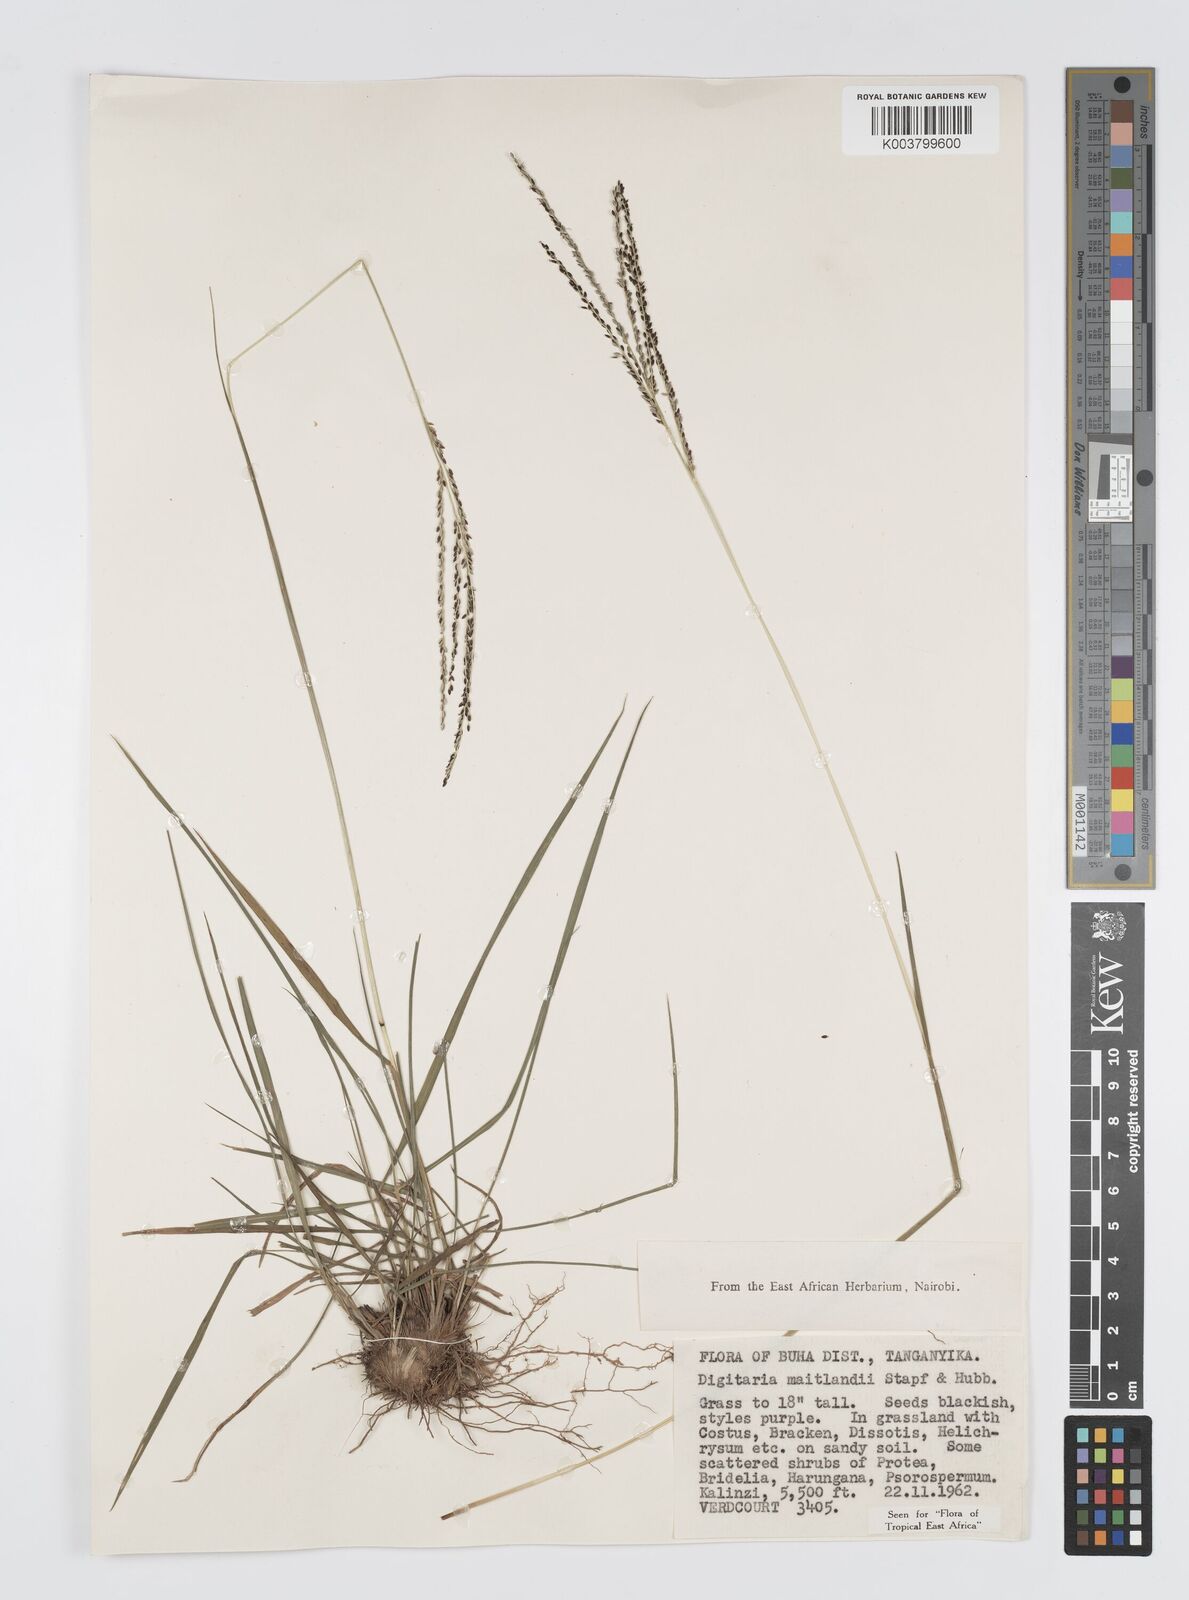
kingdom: Plantae
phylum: Tracheophyta
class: Liliopsida
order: Poales
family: Poaceae
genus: Digitaria
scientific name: Digitaria maitlandii
